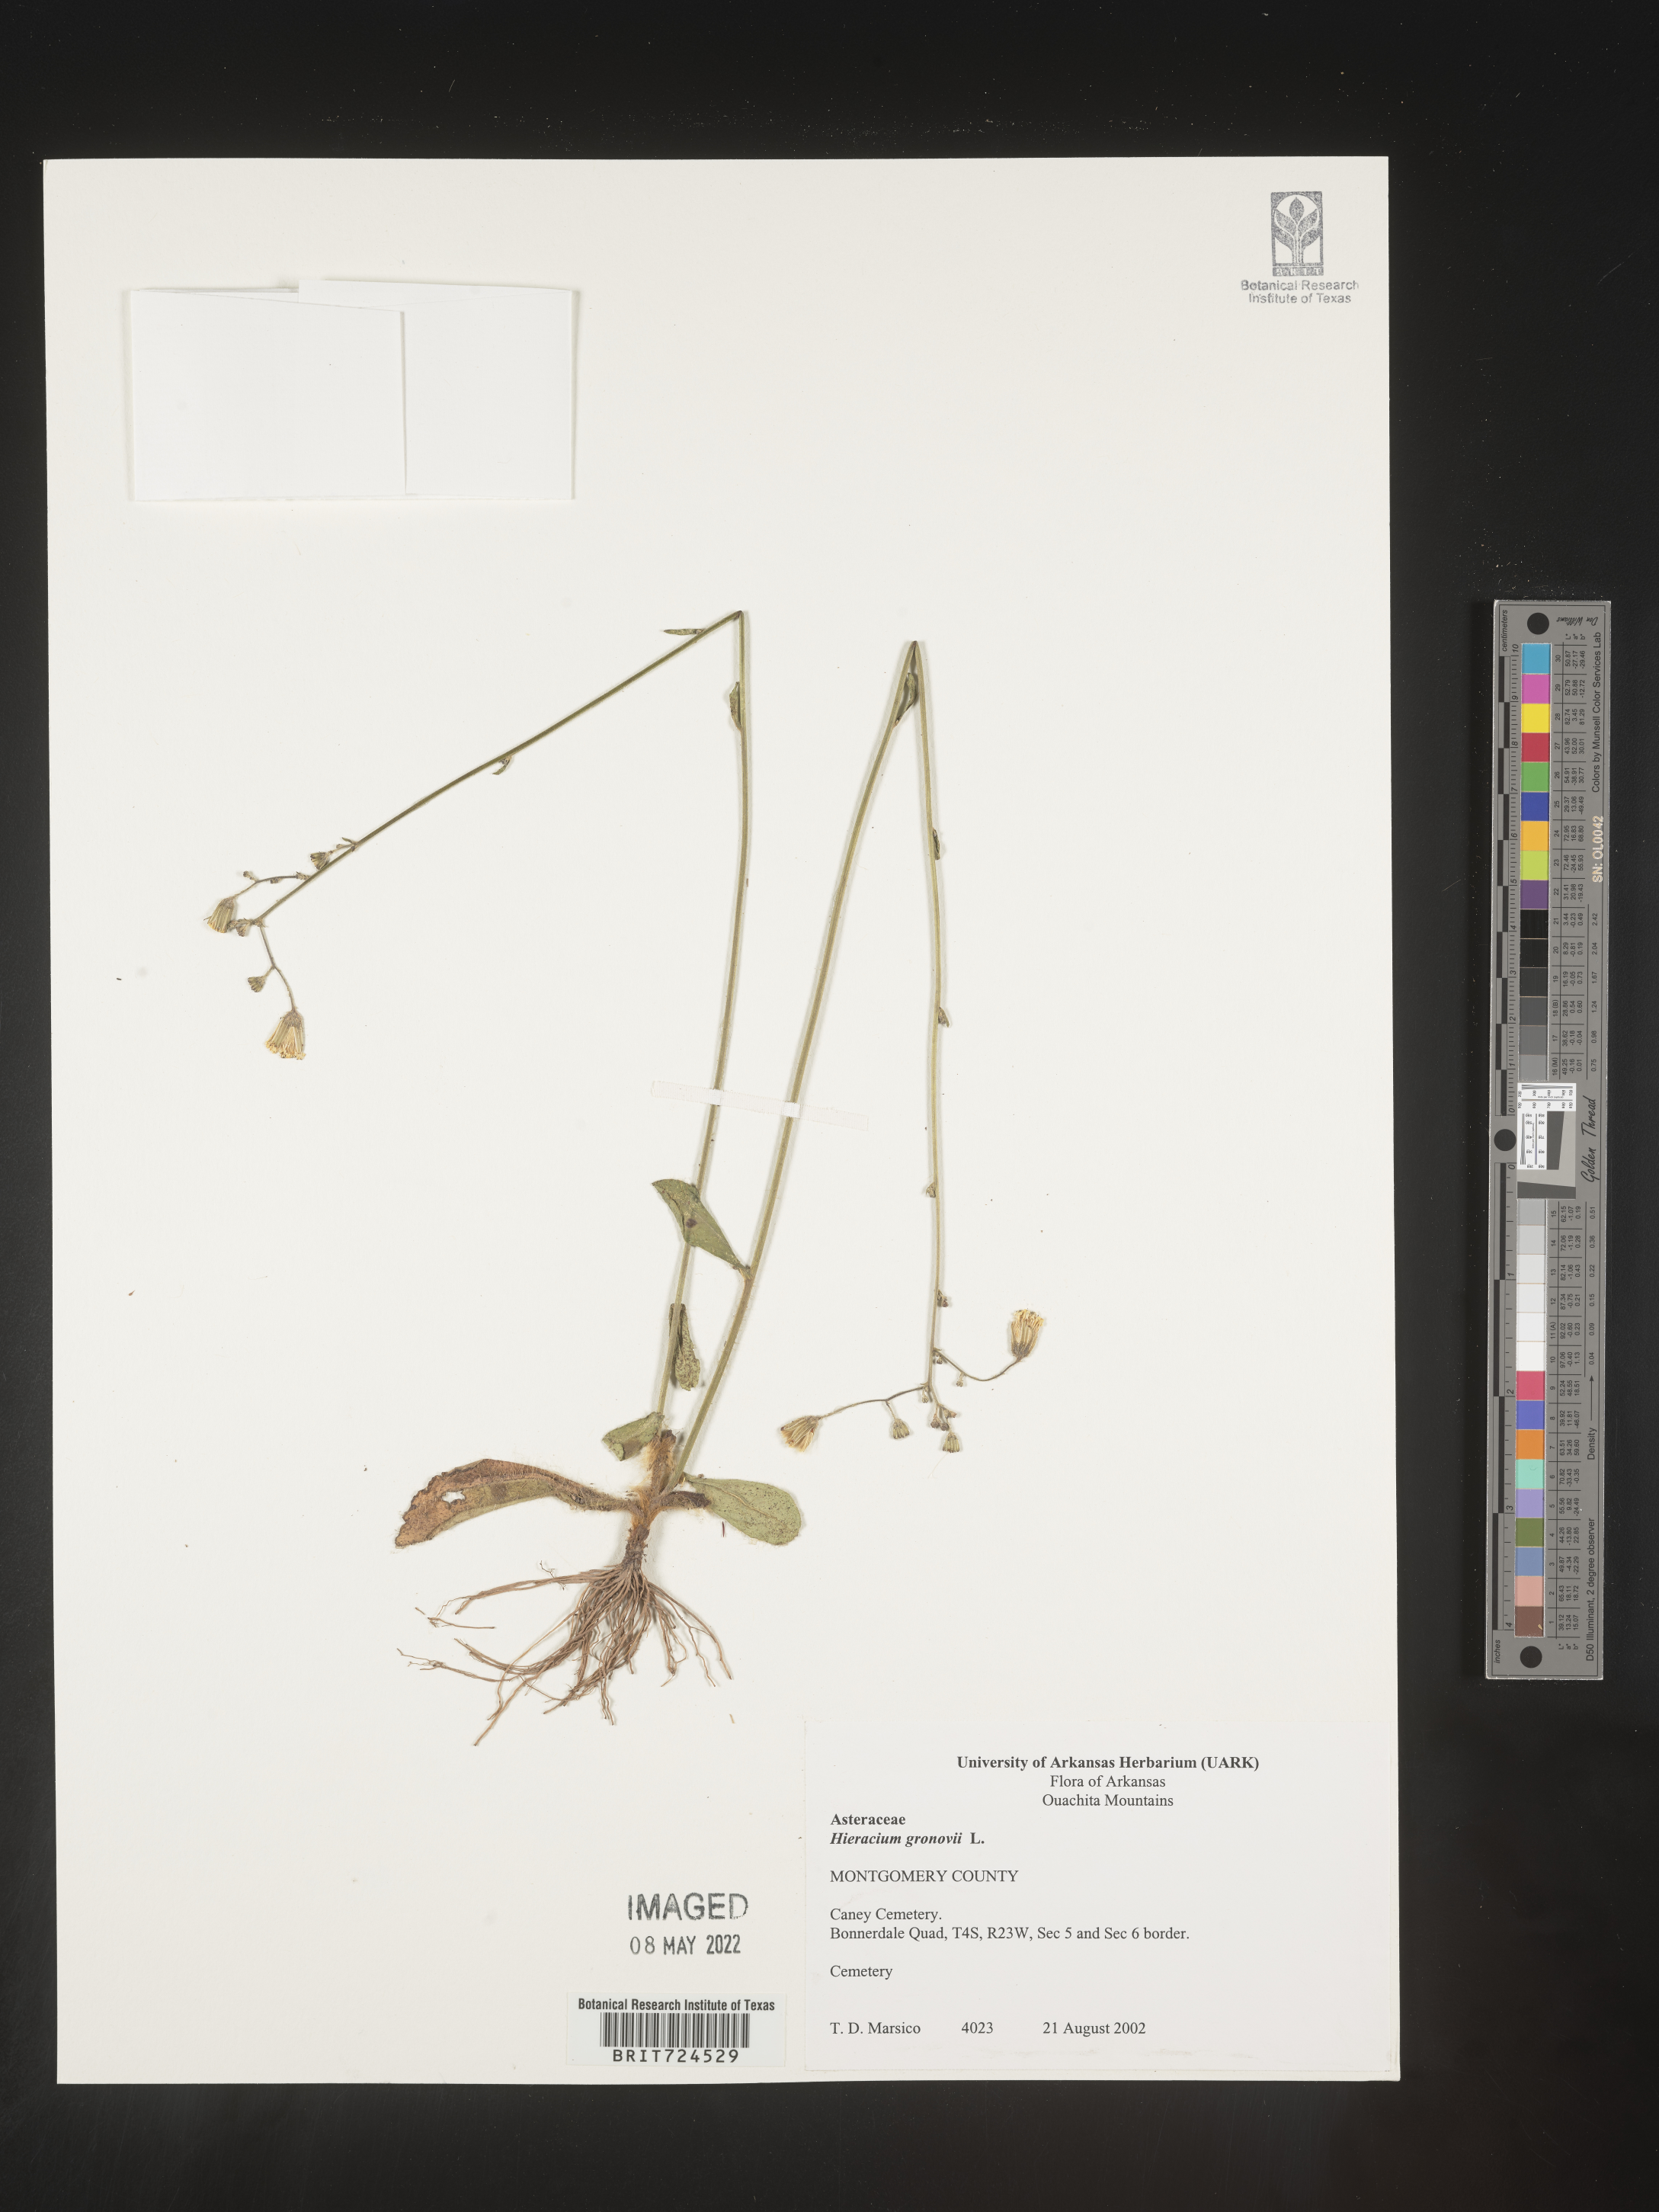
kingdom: Plantae
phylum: Tracheophyta
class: Magnoliopsida
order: Asterales
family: Asteraceae
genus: Hieracium
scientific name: Hieracium gronovii
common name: Beaked hawkweed
